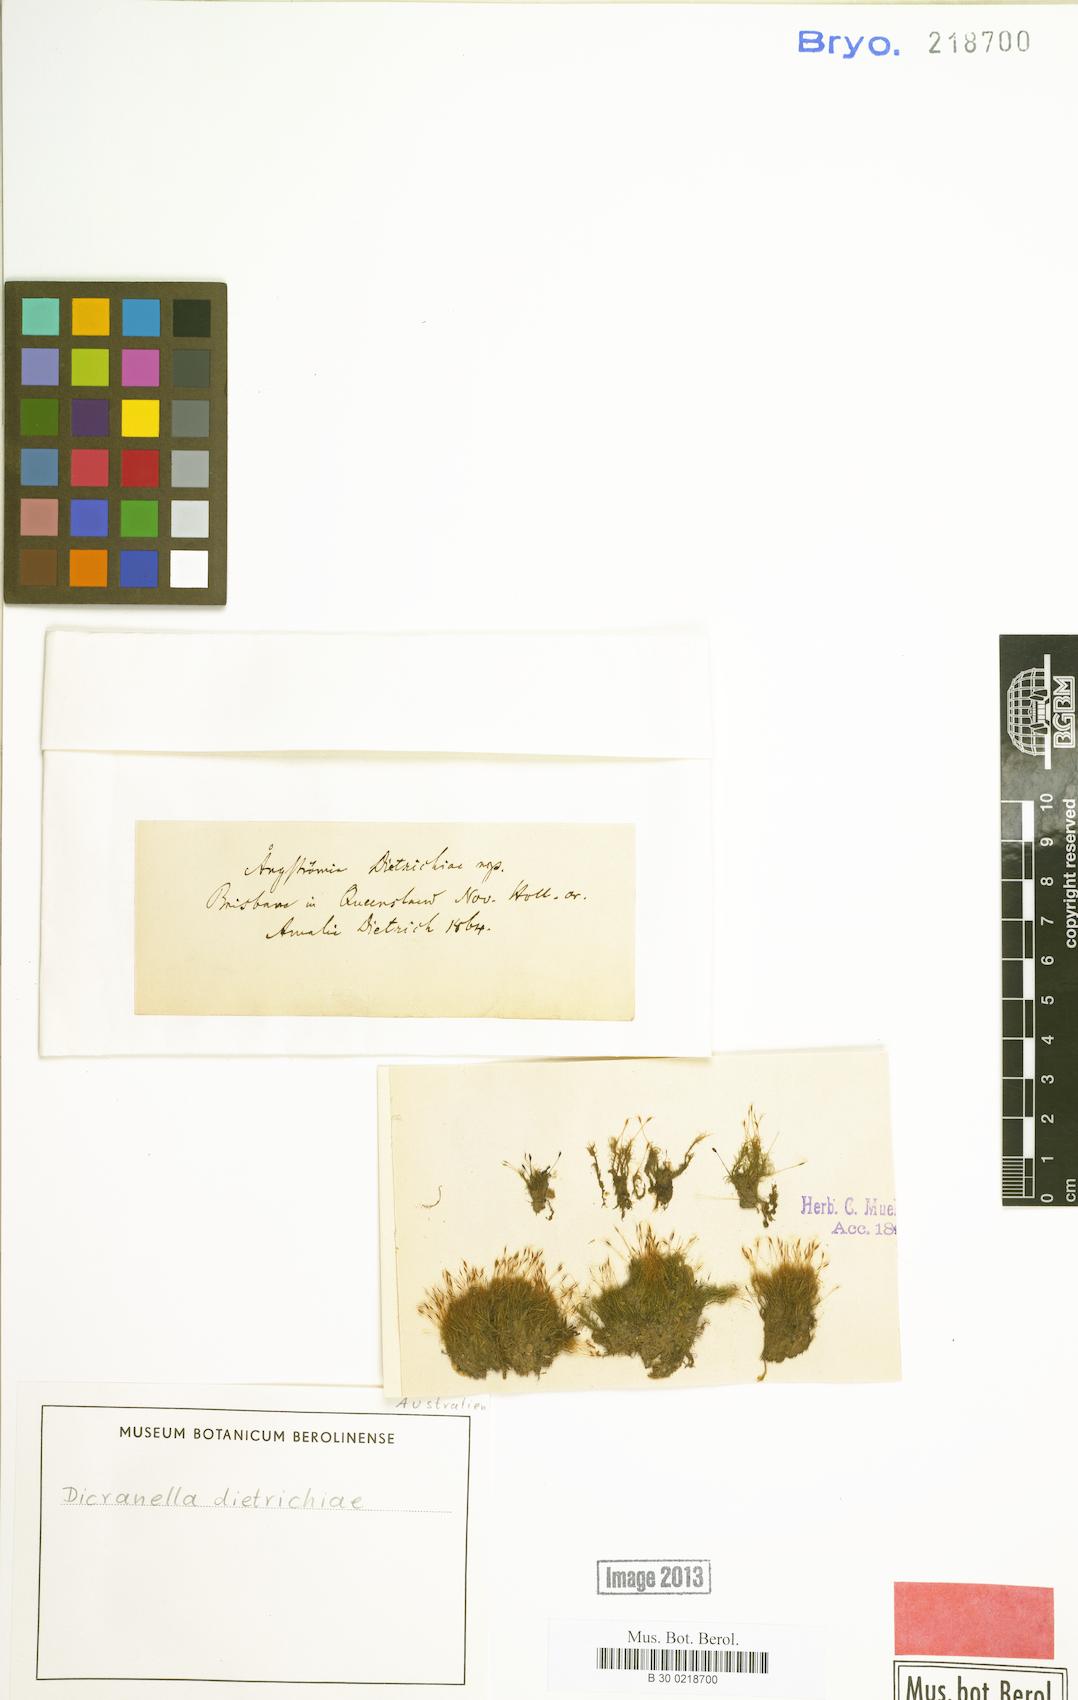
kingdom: Plantae
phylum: Bryophyta
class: Bryopsida
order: Dicranales
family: Dicranellaceae
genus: Dicranella
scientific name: Dicranella dietrichiae
